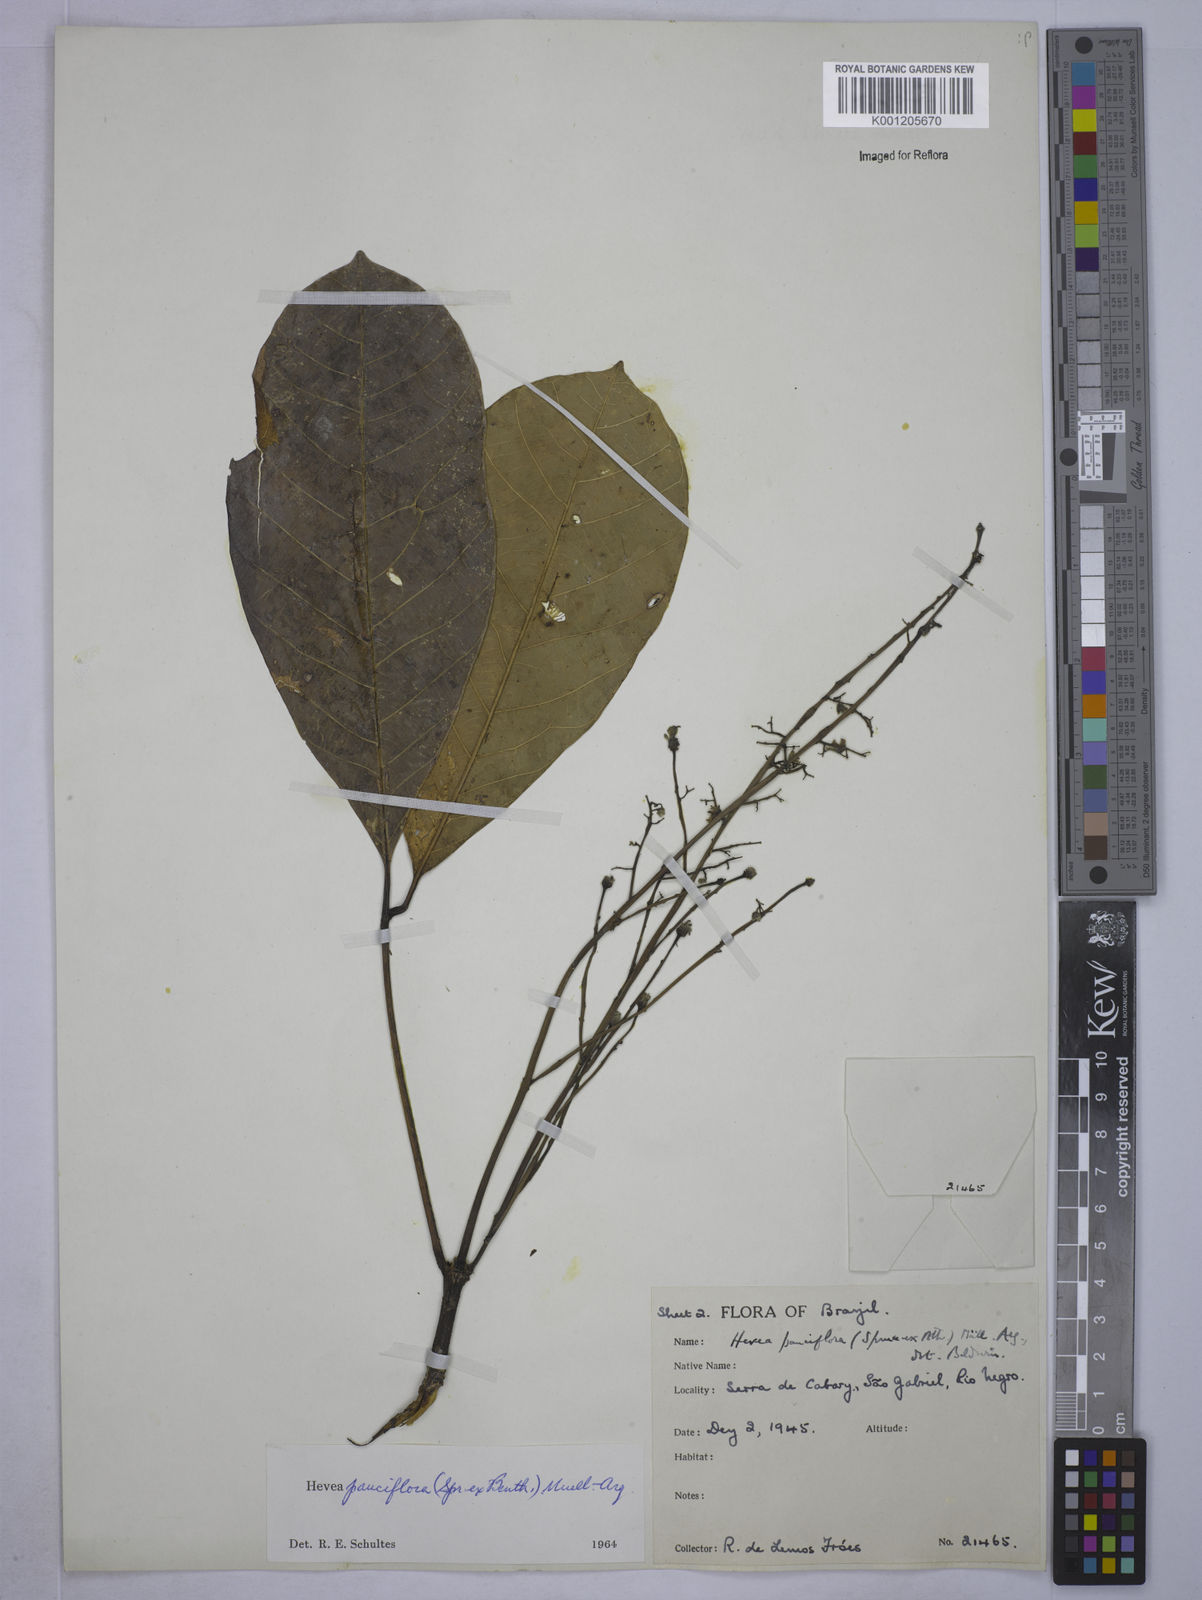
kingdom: Plantae
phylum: Tracheophyta
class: Magnoliopsida
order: Malpighiales
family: Euphorbiaceae
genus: Hevea
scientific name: Hevea pauciflora
